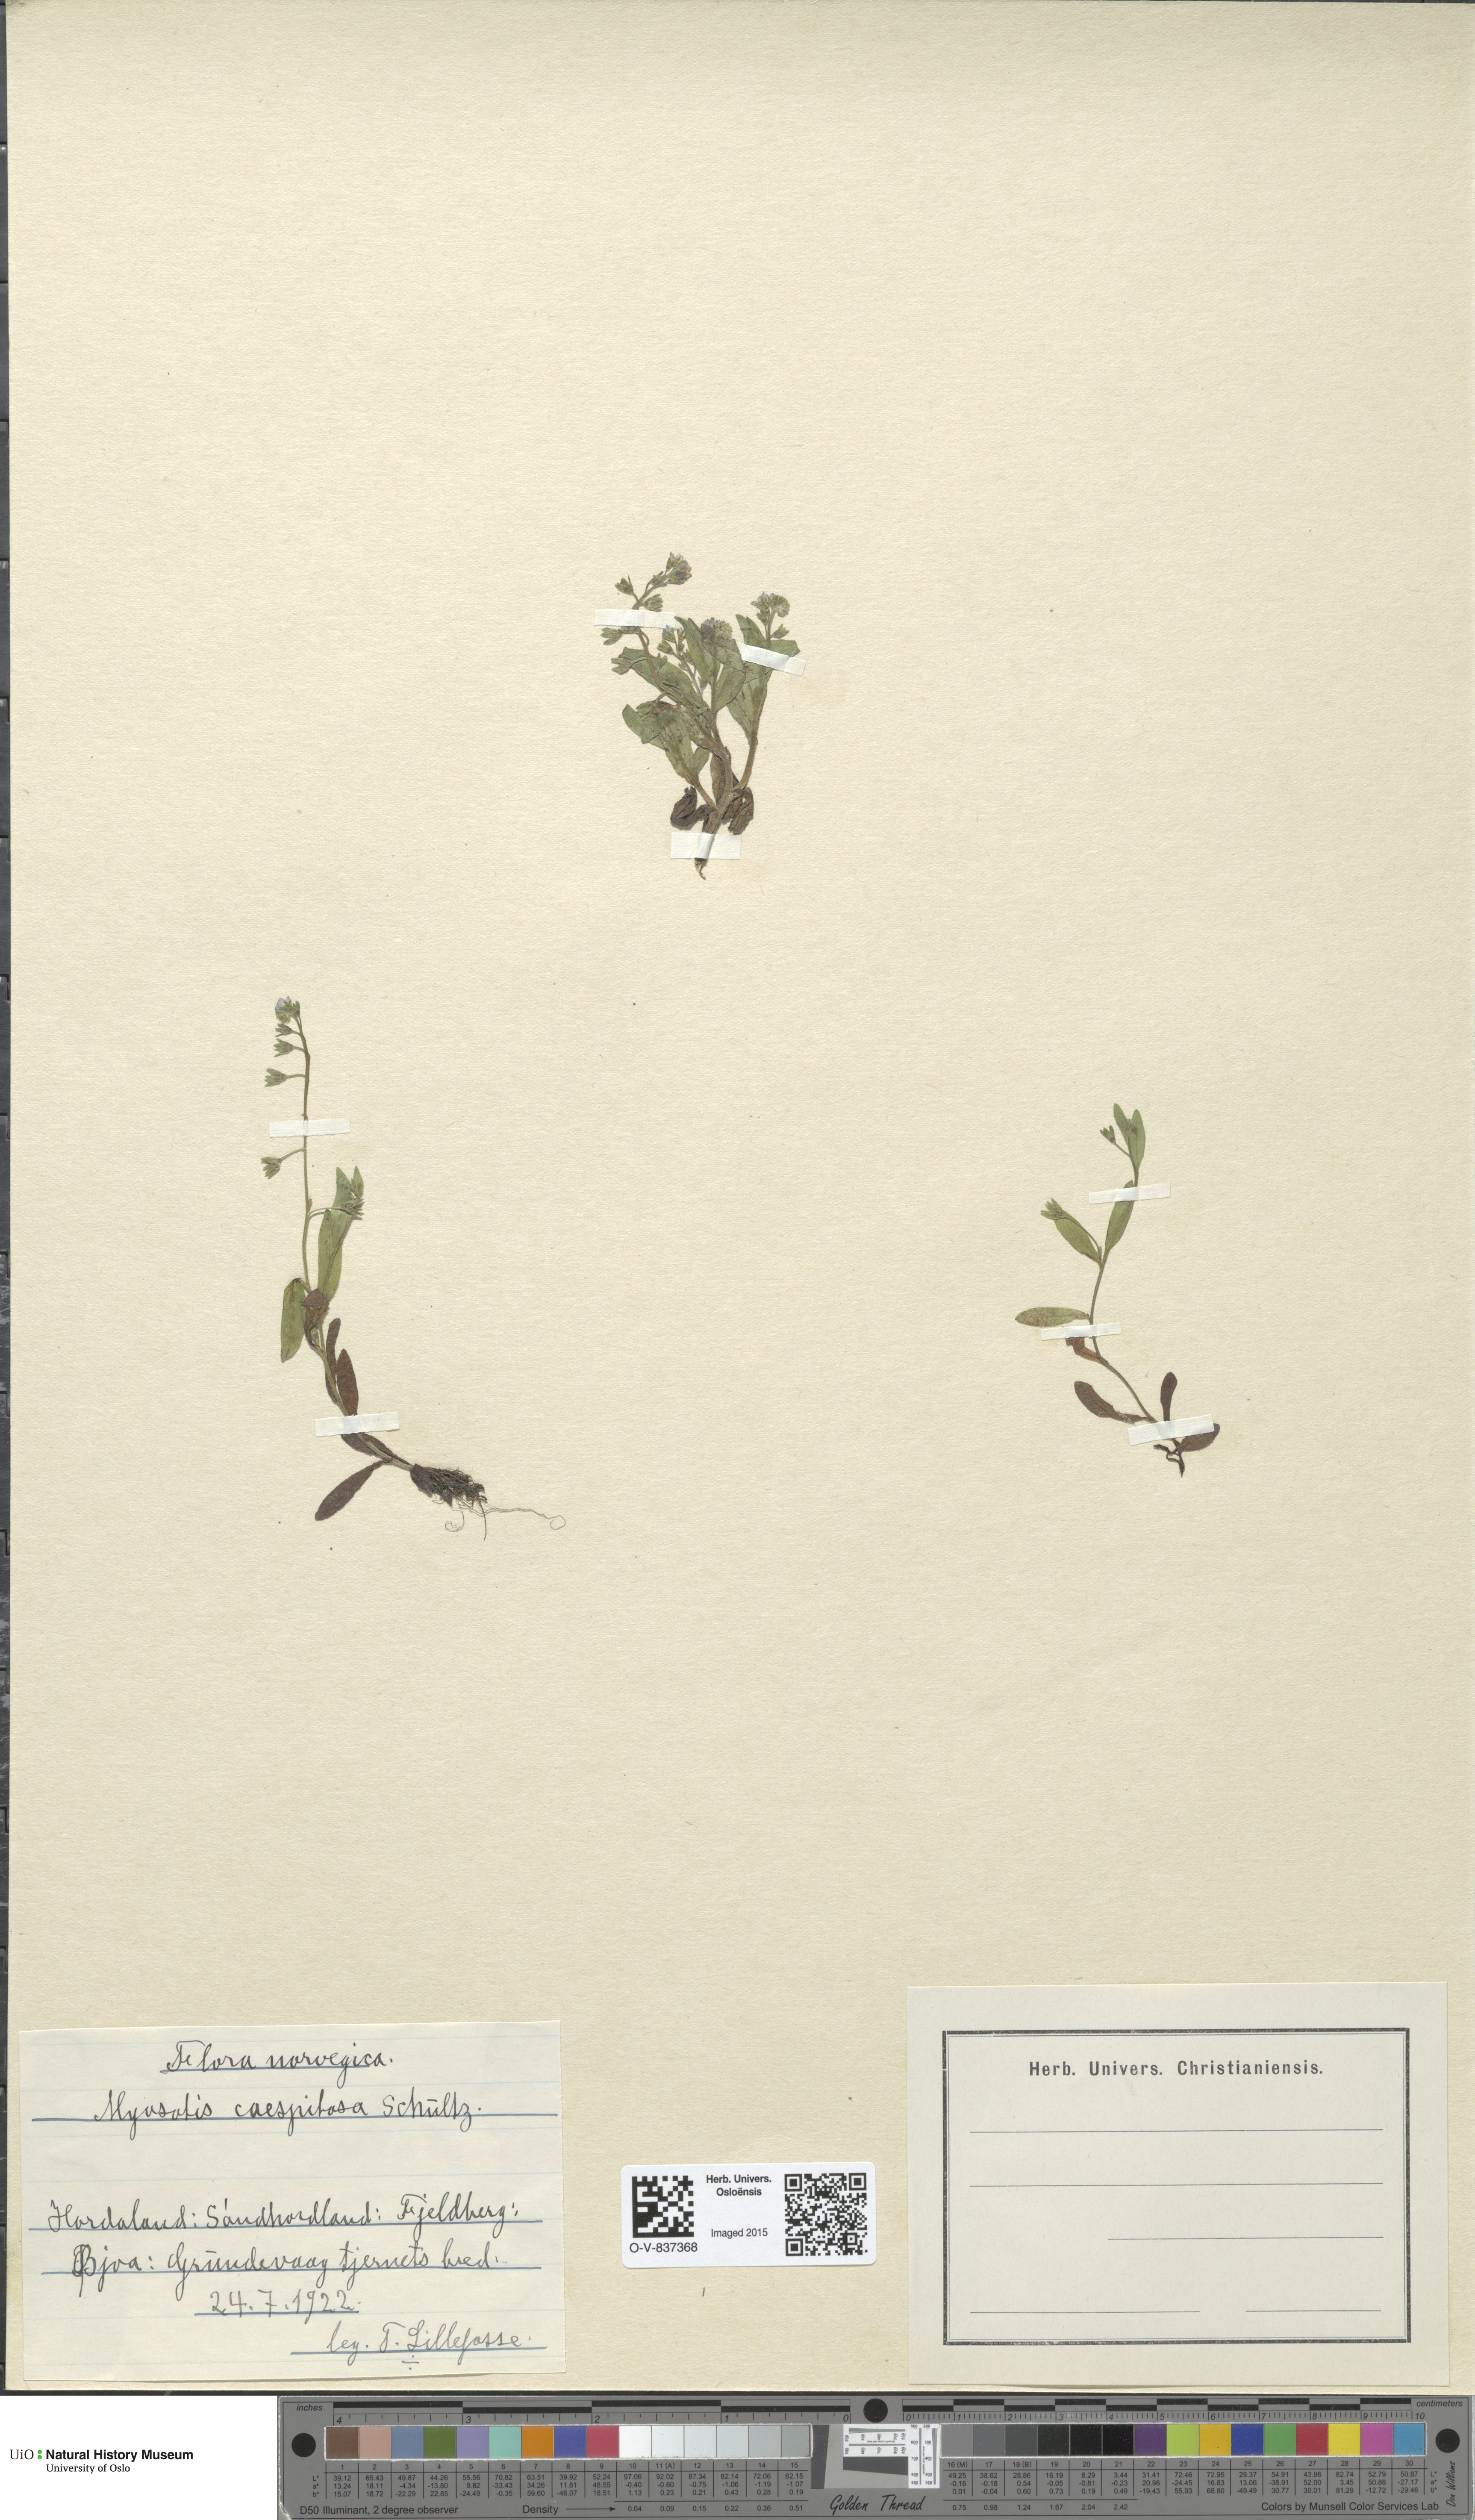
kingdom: Plantae
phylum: Tracheophyta
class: Magnoliopsida
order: Boraginales
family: Boraginaceae
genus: Myosotis
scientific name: Myosotis laxa
